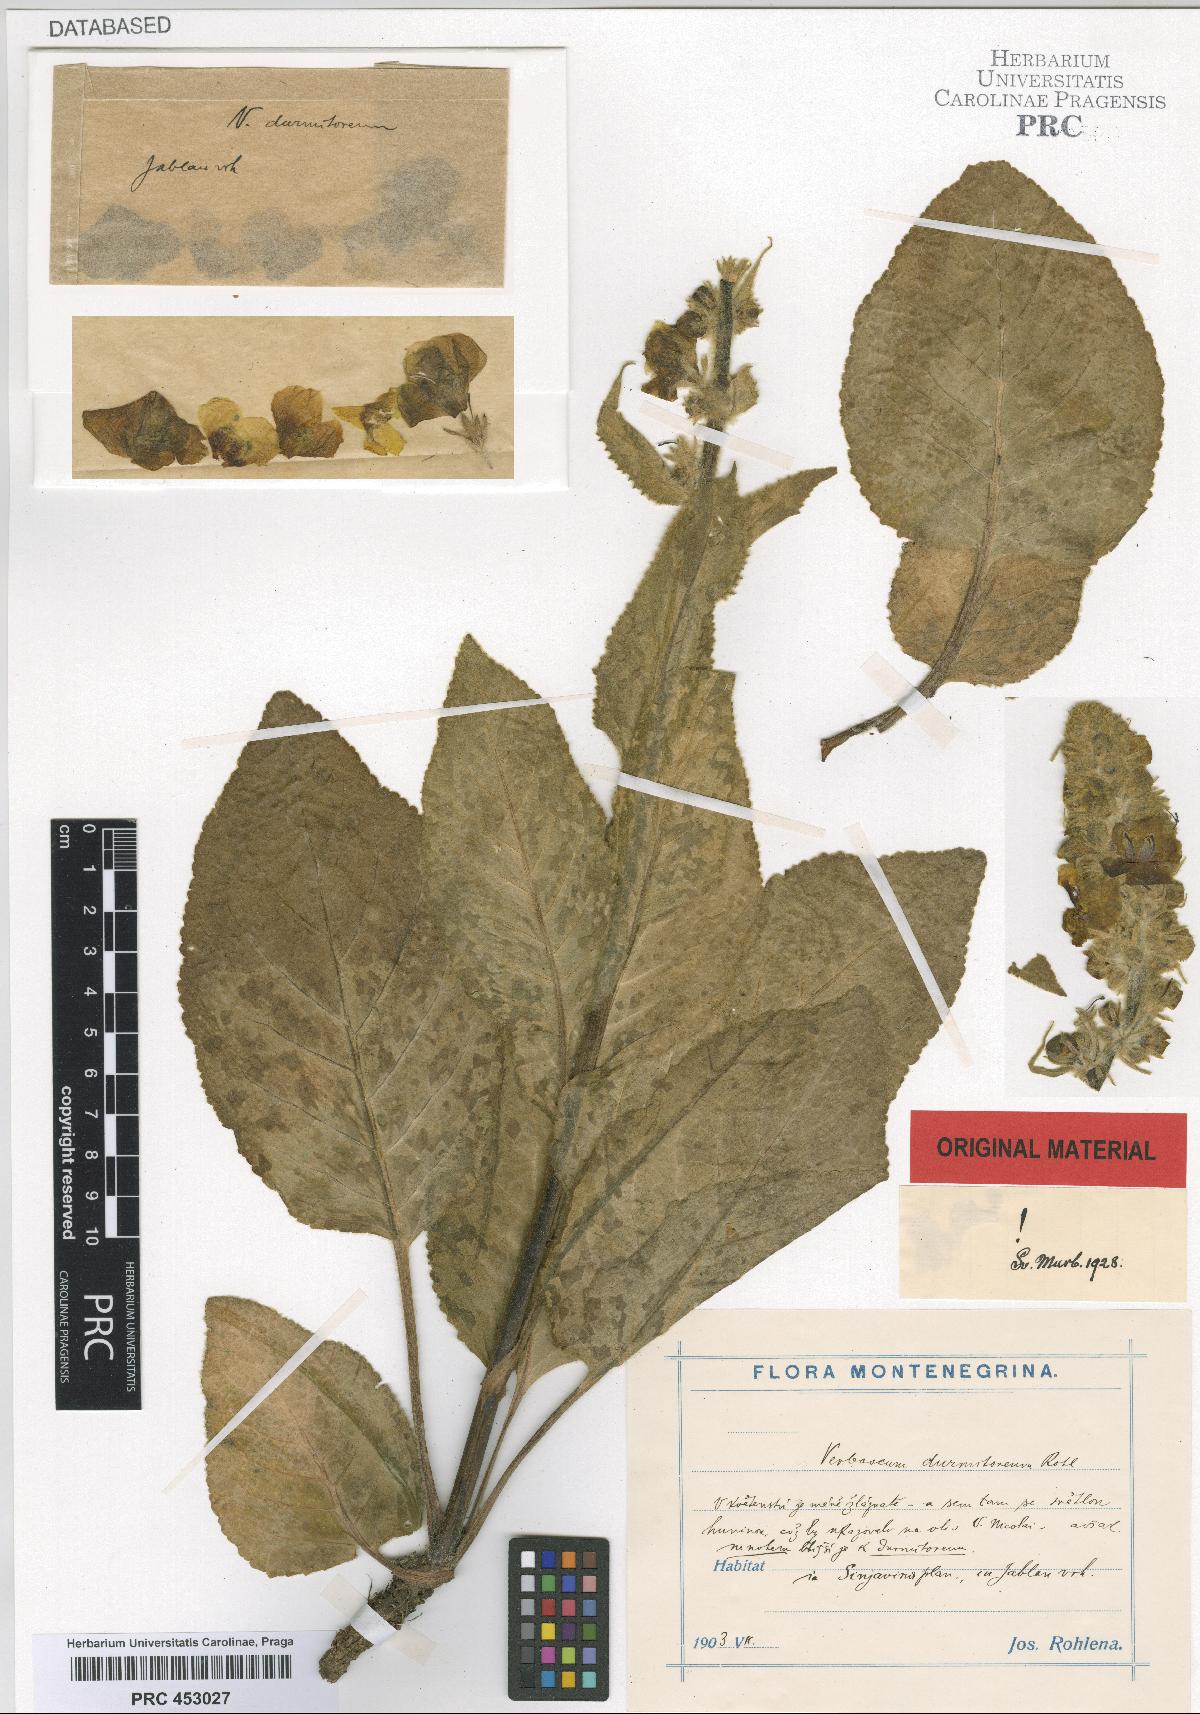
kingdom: Plantae
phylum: Tracheophyta
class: Magnoliopsida
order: Lamiales
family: Scrophulariaceae
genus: Verbascum
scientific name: Verbascum durmitoreum
